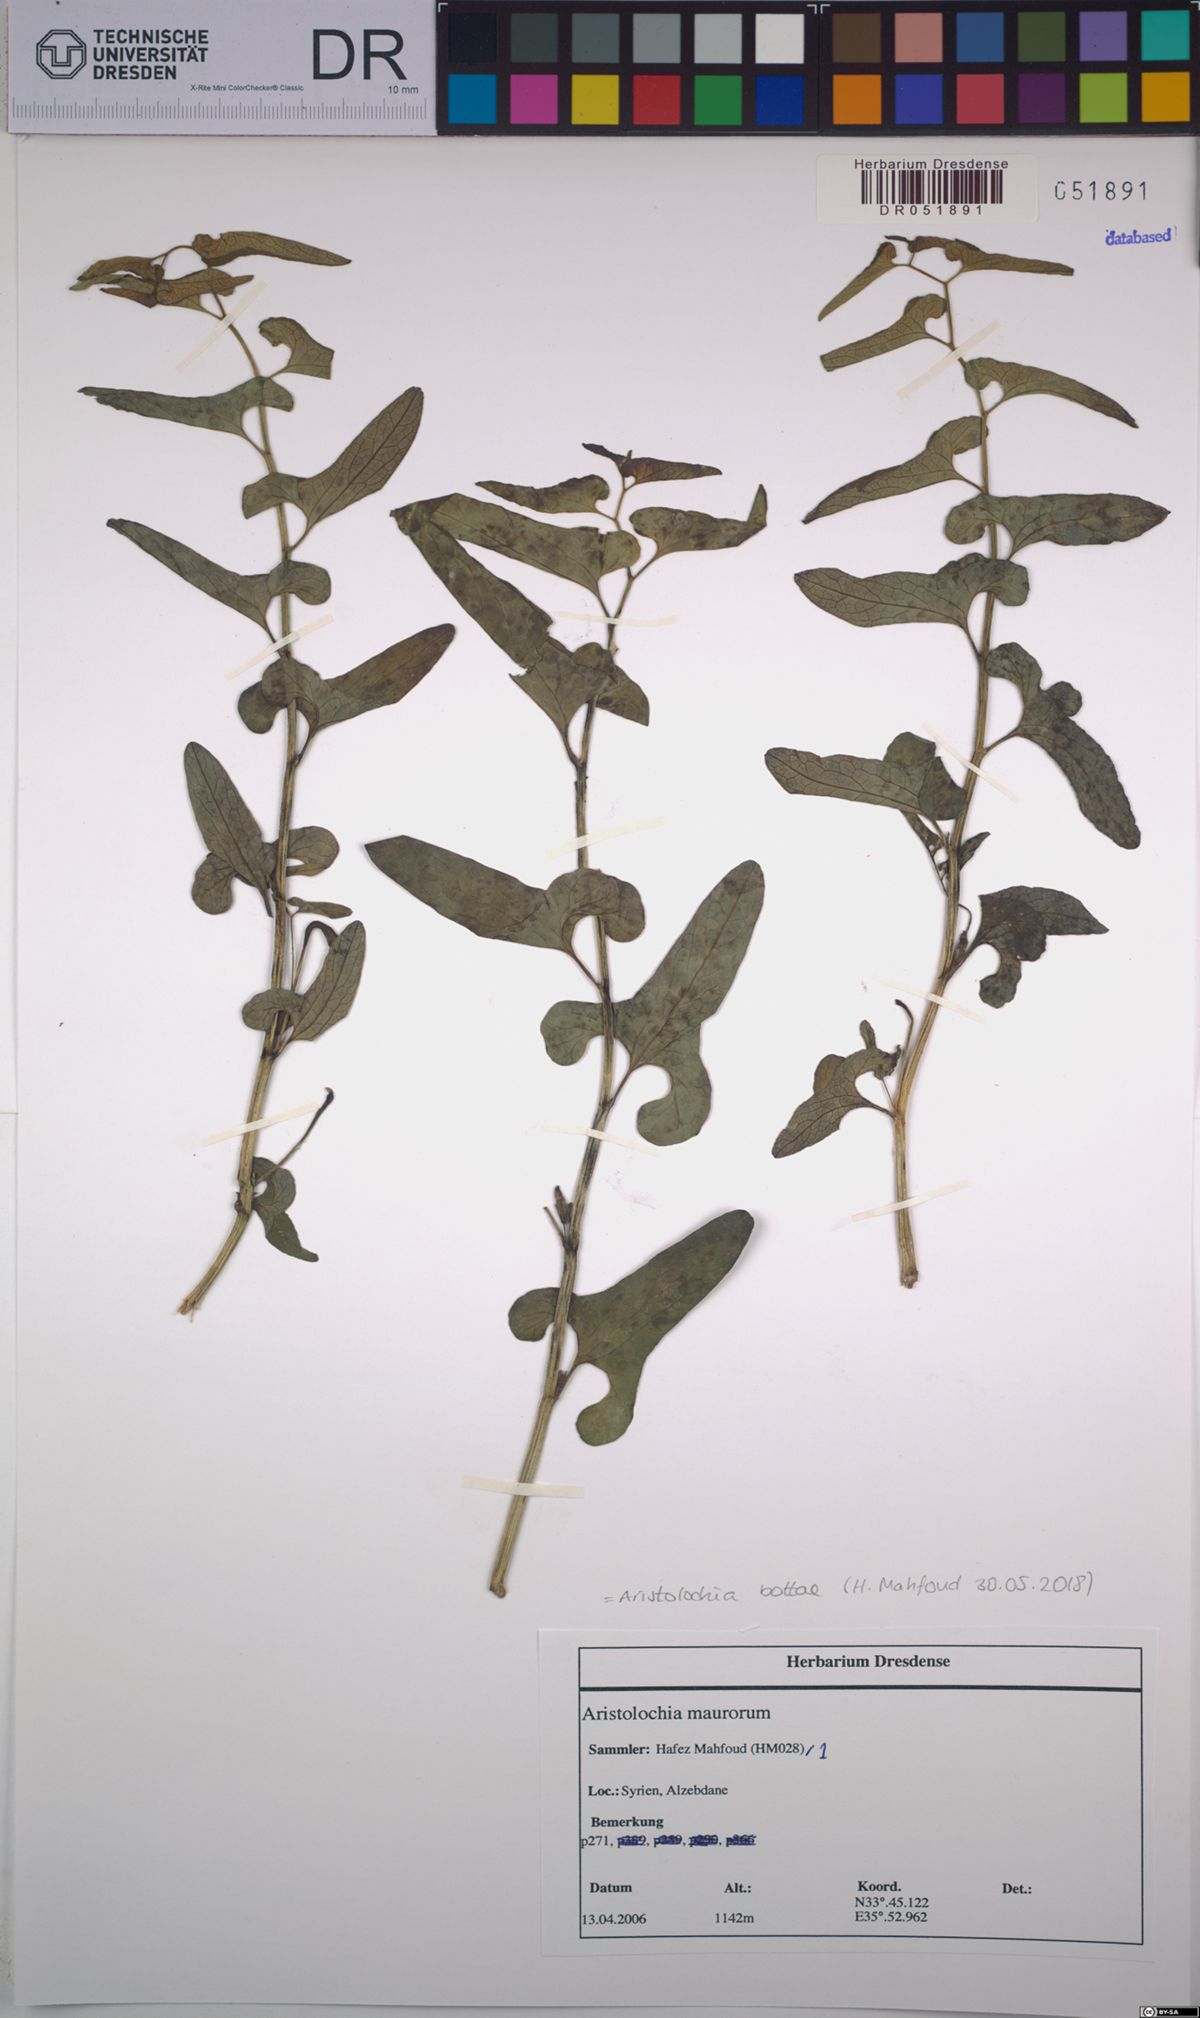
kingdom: Plantae
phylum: Tracheophyta
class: Magnoliopsida
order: Piperales
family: Aristolochiaceae
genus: Aristolochia
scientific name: Aristolochia bottae
